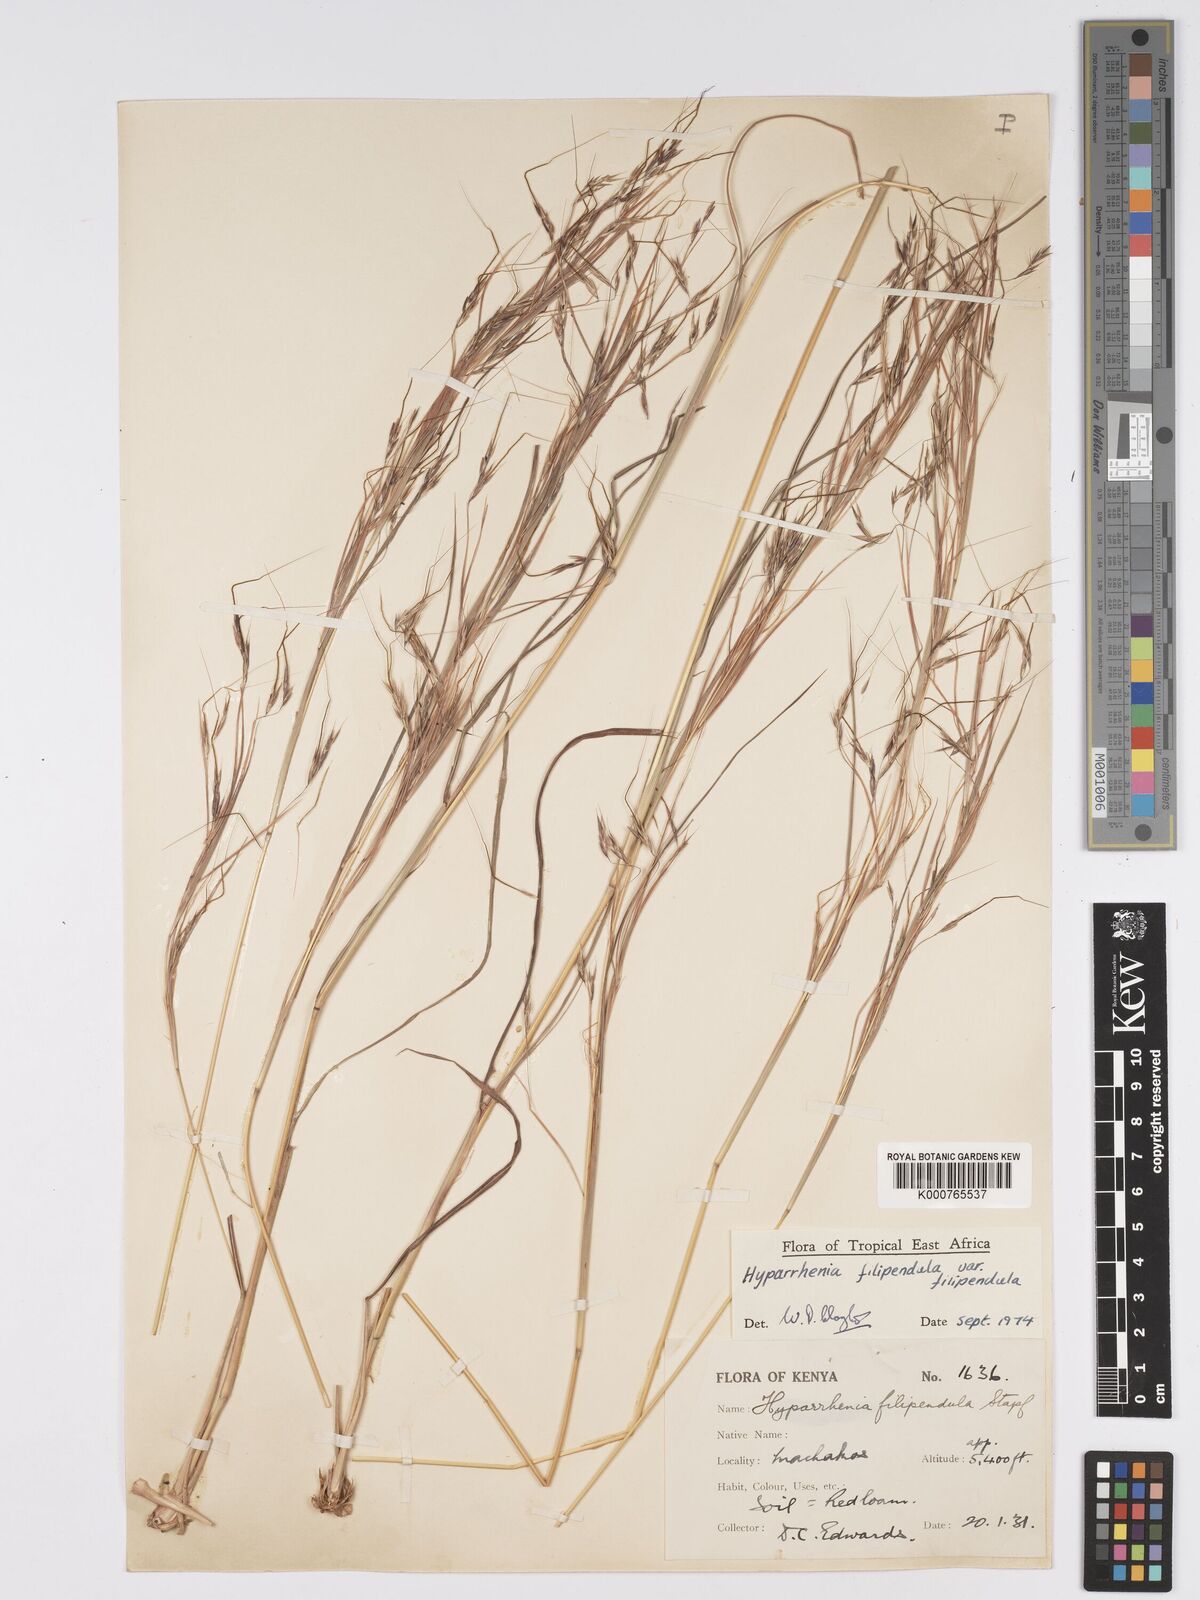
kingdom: Plantae
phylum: Tracheophyta
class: Liliopsida
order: Poales
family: Poaceae
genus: Hyparrhenia
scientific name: Hyparrhenia filipendula
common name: Tambookie grass
